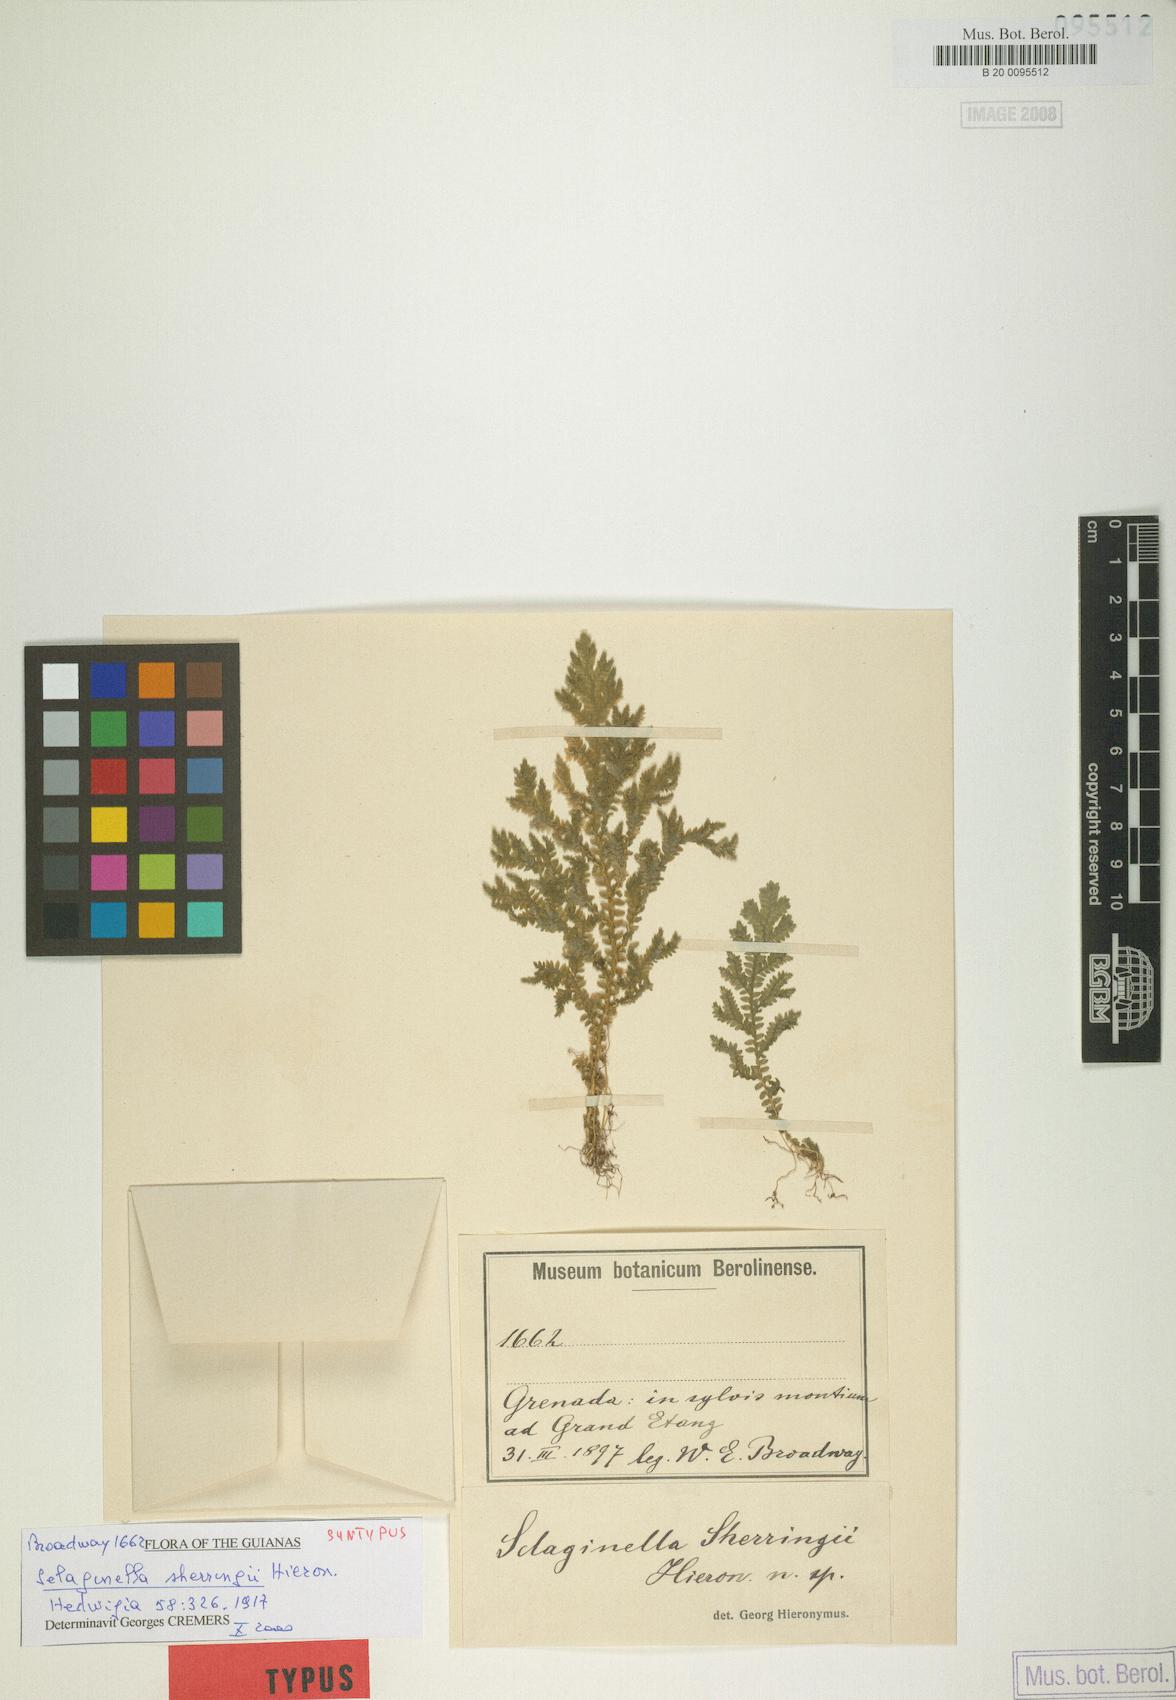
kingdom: Plantae
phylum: Tracheophyta
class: Lycopodiopsida
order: Selaginellales
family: Selaginellaceae
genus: Selaginella
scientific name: Selaginella substipitata
